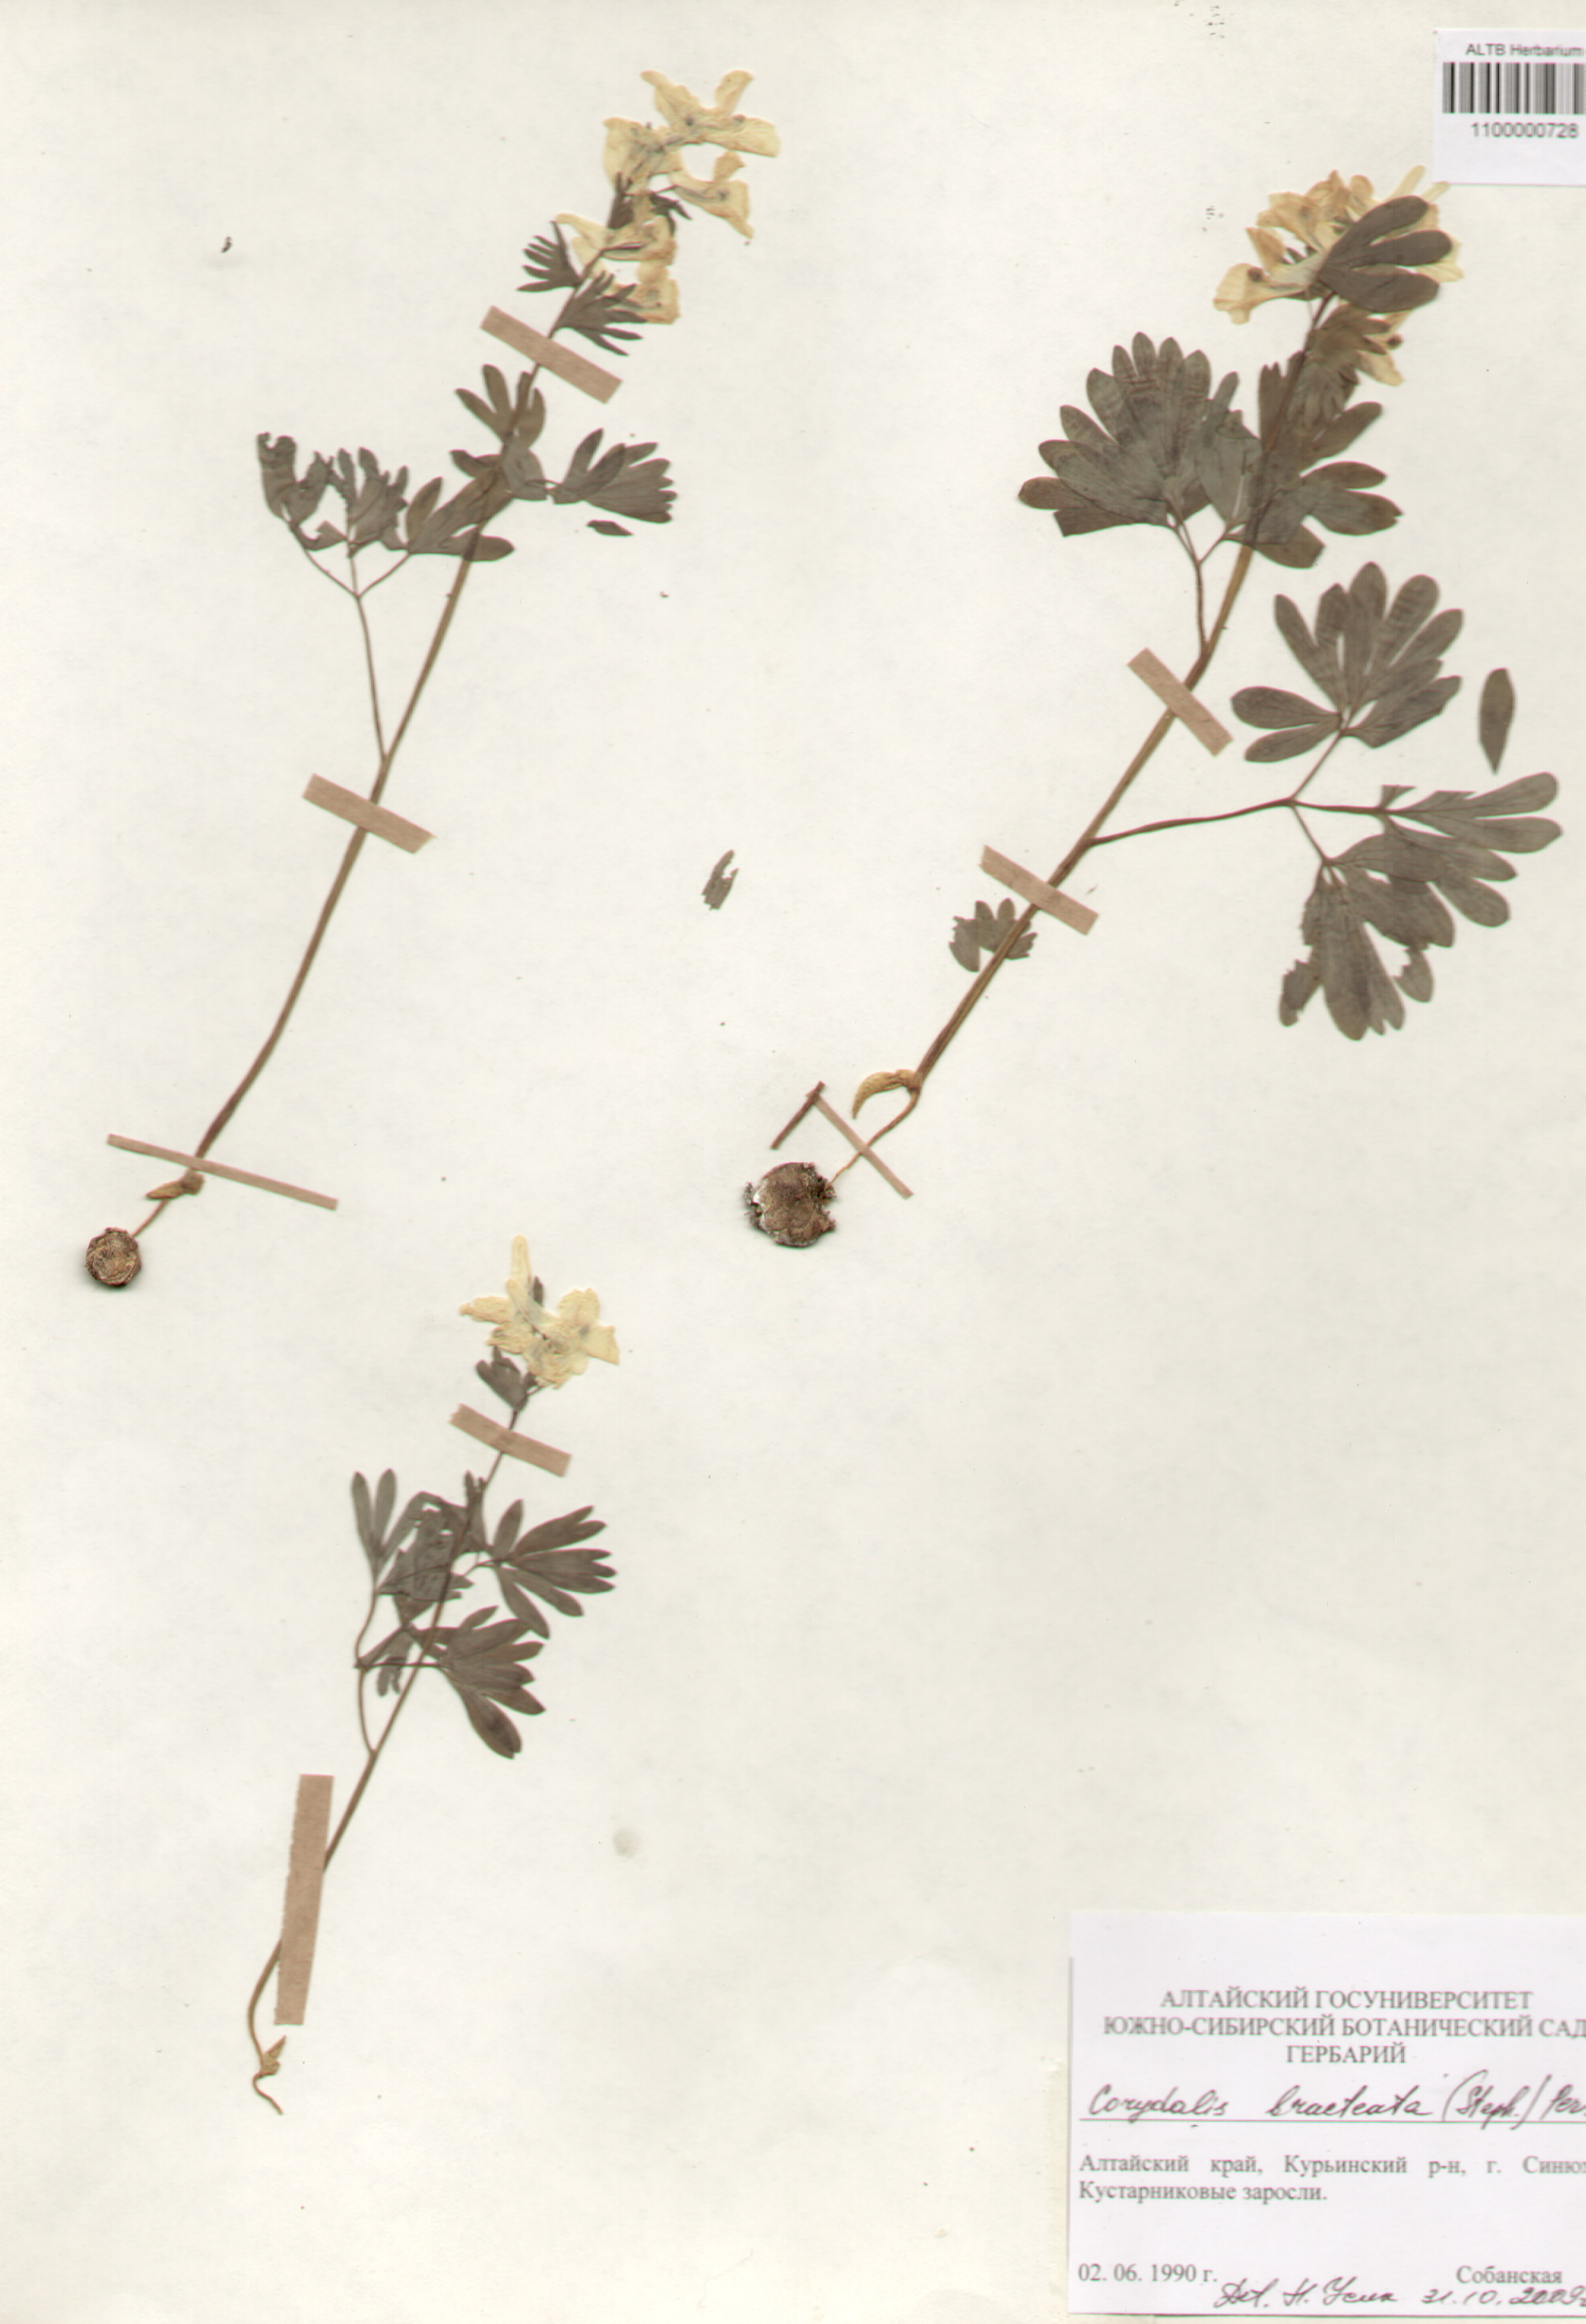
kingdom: Plantae
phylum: Tracheophyta
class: Magnoliopsida
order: Ranunculales
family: Papaveraceae
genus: Corydalis
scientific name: Corydalis bracteata
